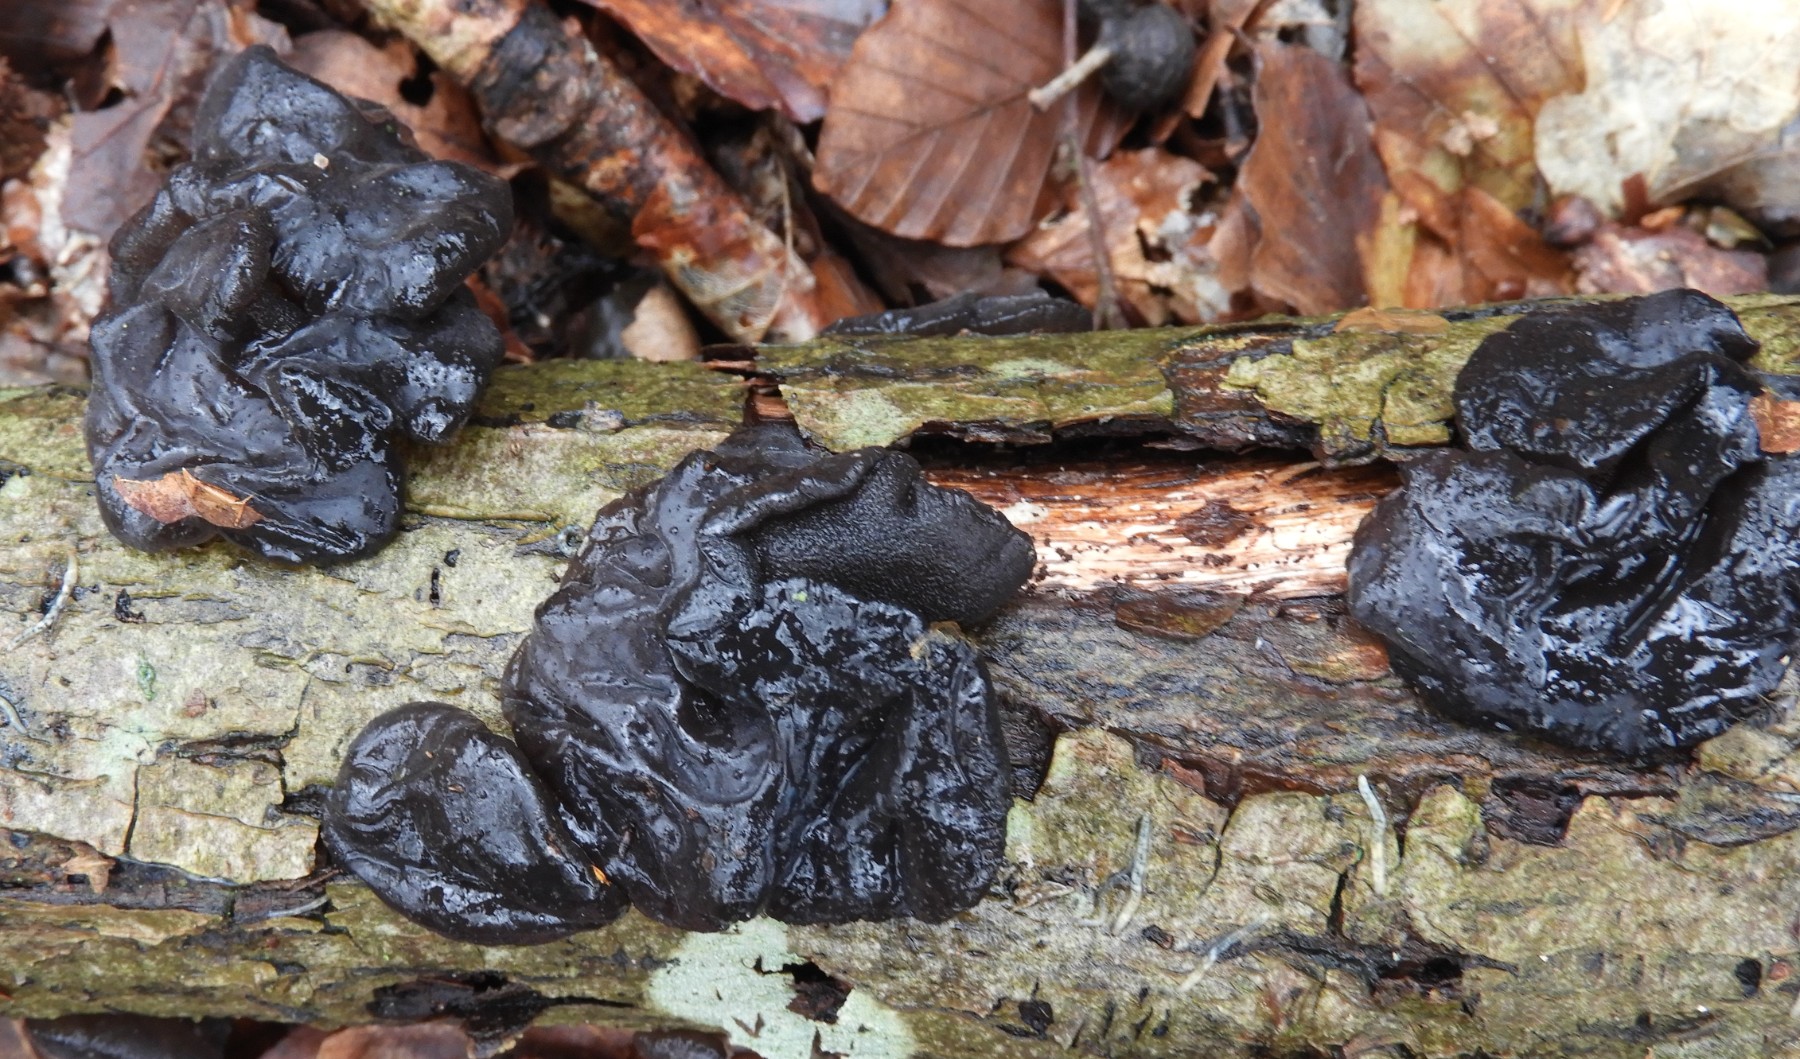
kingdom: Fungi
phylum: Basidiomycota
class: Agaricomycetes
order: Auriculariales
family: Auriculariaceae
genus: Exidia
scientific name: Exidia glandulosa
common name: ege-bævretop
